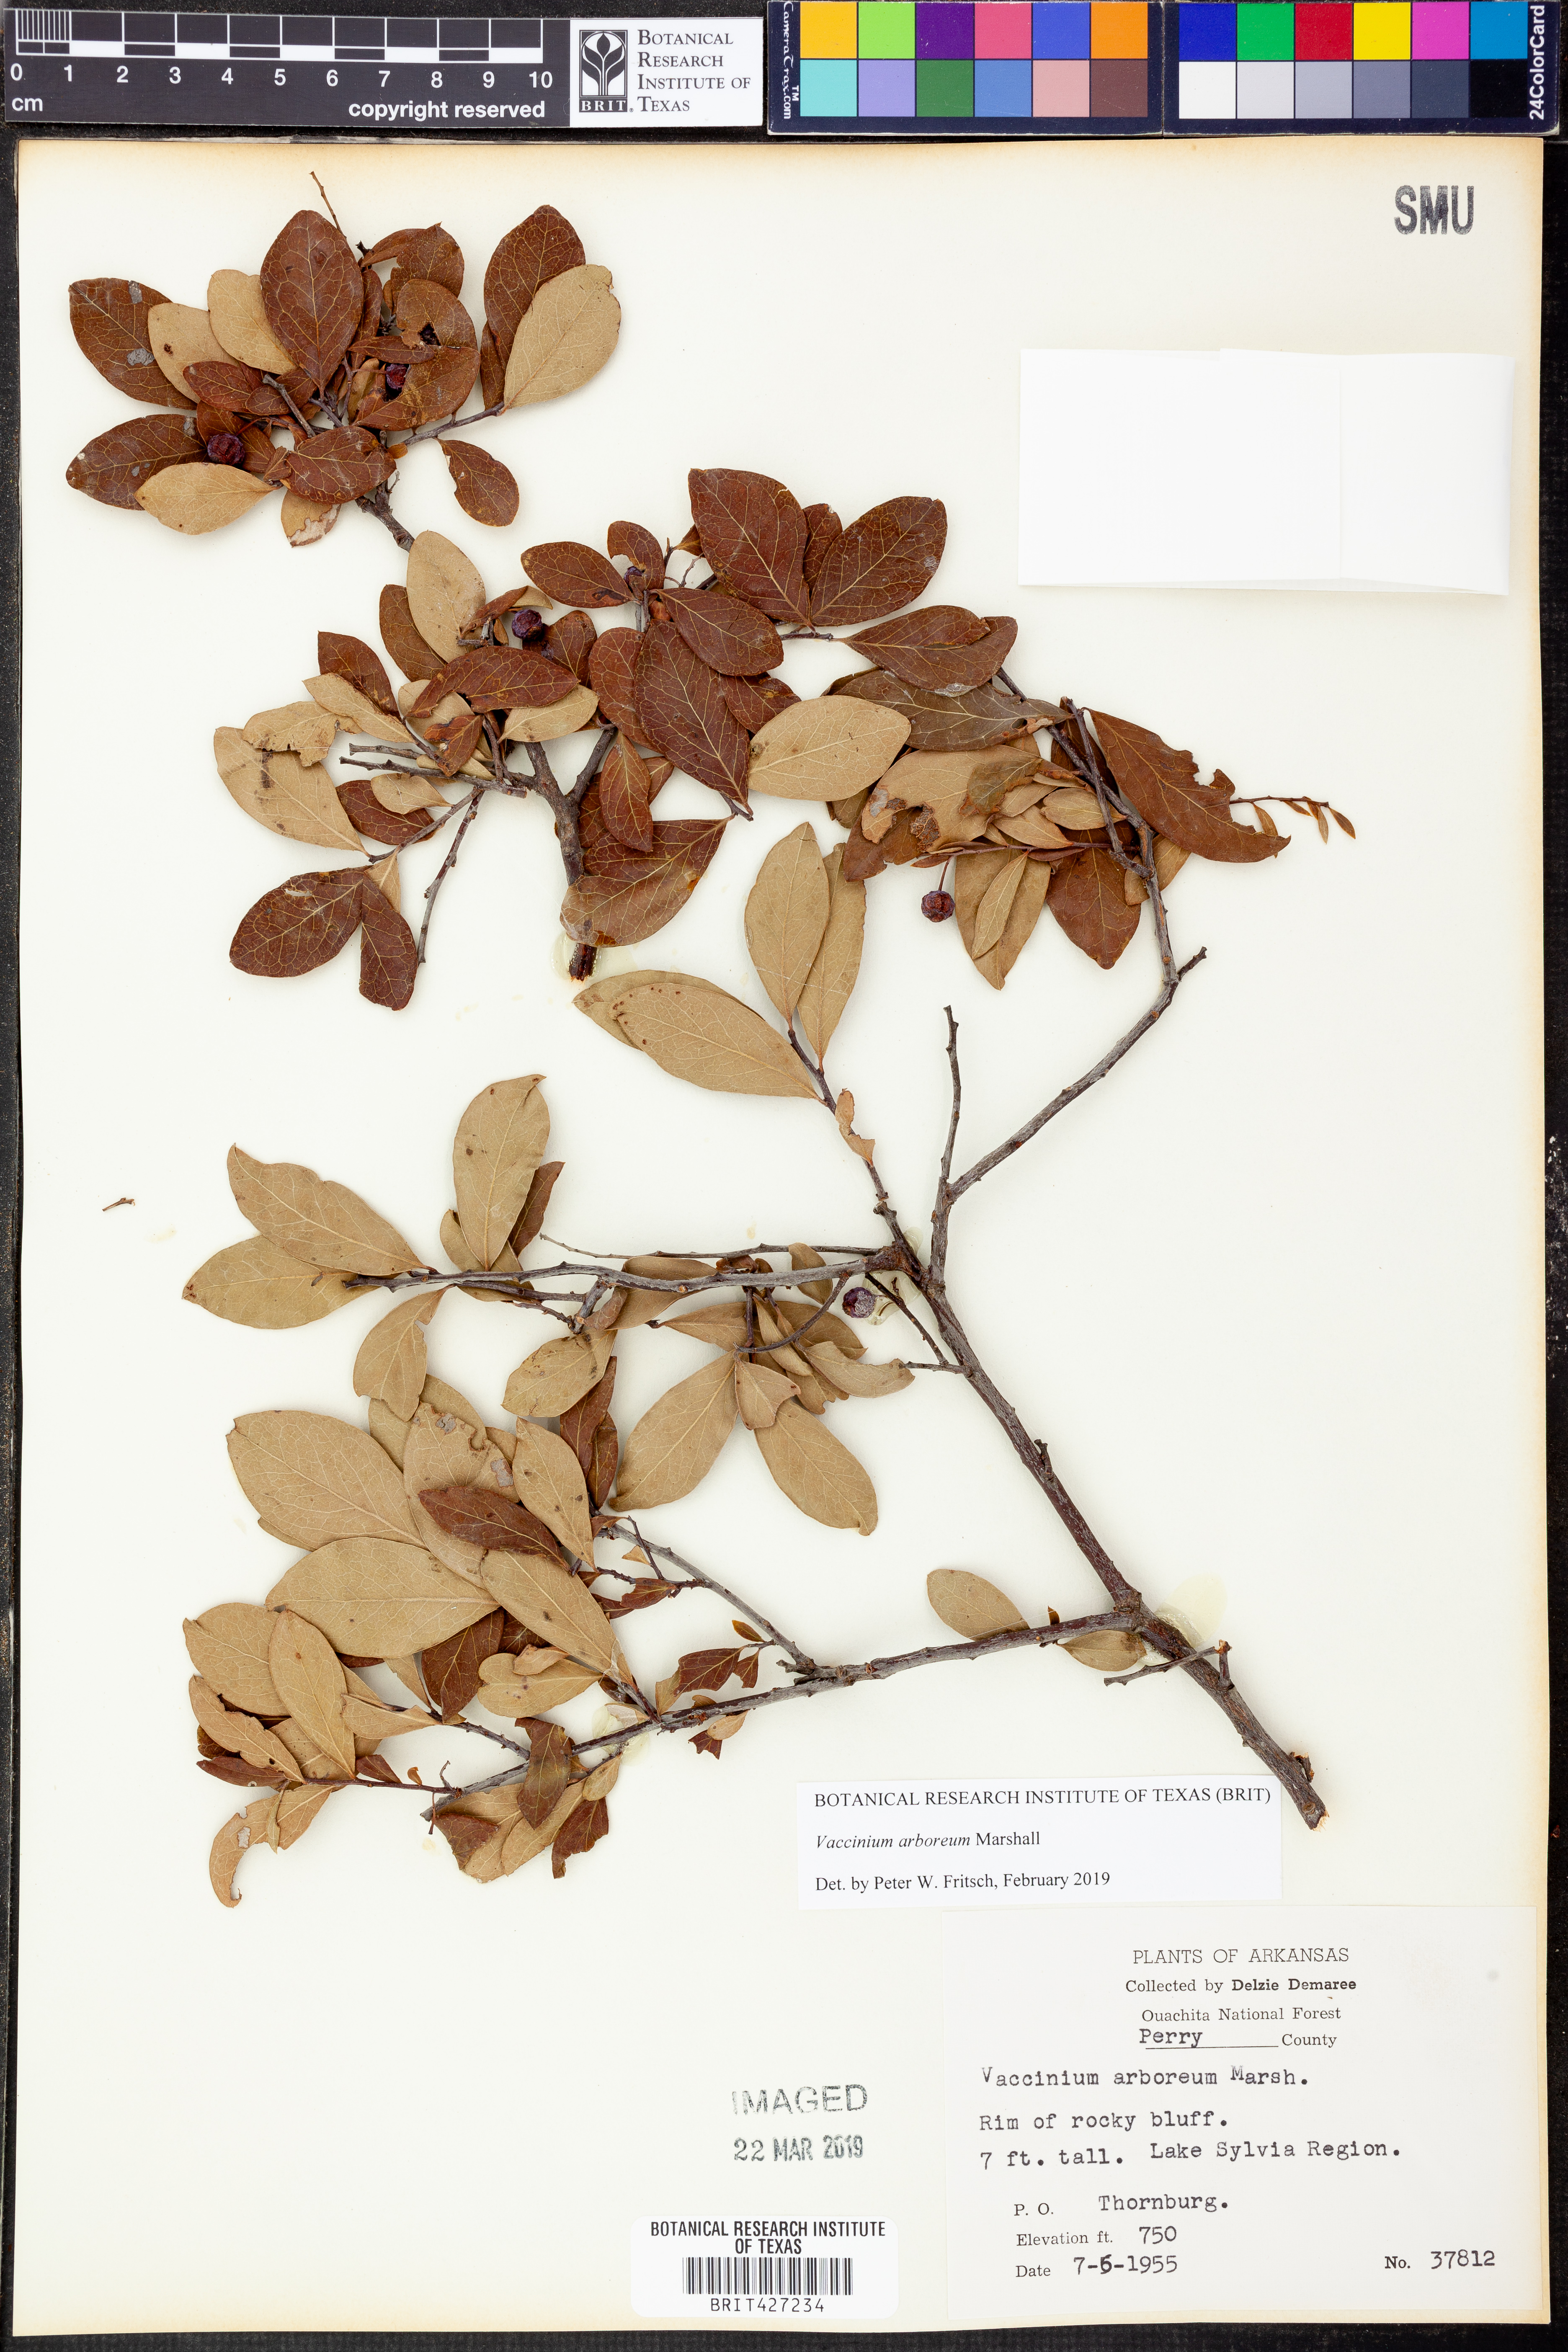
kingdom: Plantae
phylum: Tracheophyta
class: Magnoliopsida
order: Ericales
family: Ericaceae
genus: Vaccinium
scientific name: Vaccinium arboreum
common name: Farkleberry
